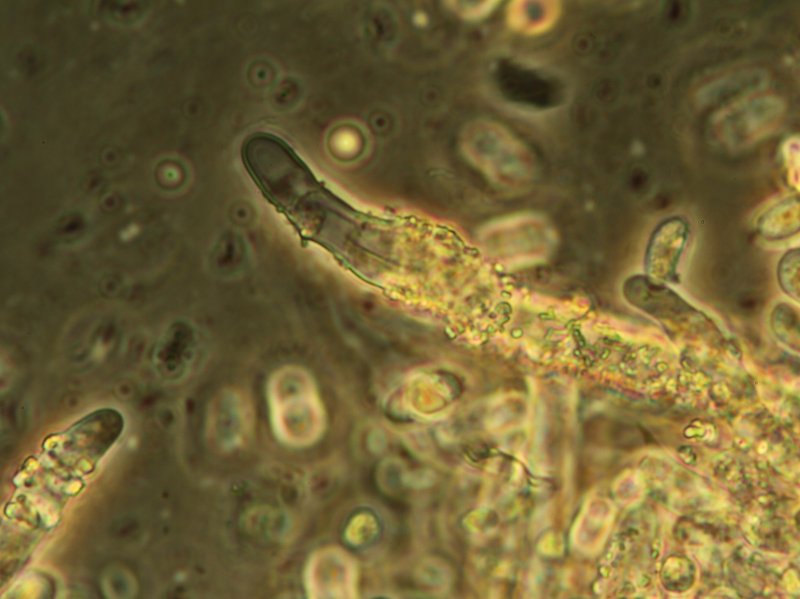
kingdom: Fungi
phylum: Basidiomycota
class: Agaricomycetes
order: Hymenochaetales
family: Rickenellaceae
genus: Peniophorella
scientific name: Peniophorella pubera
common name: dunet kalkskind
